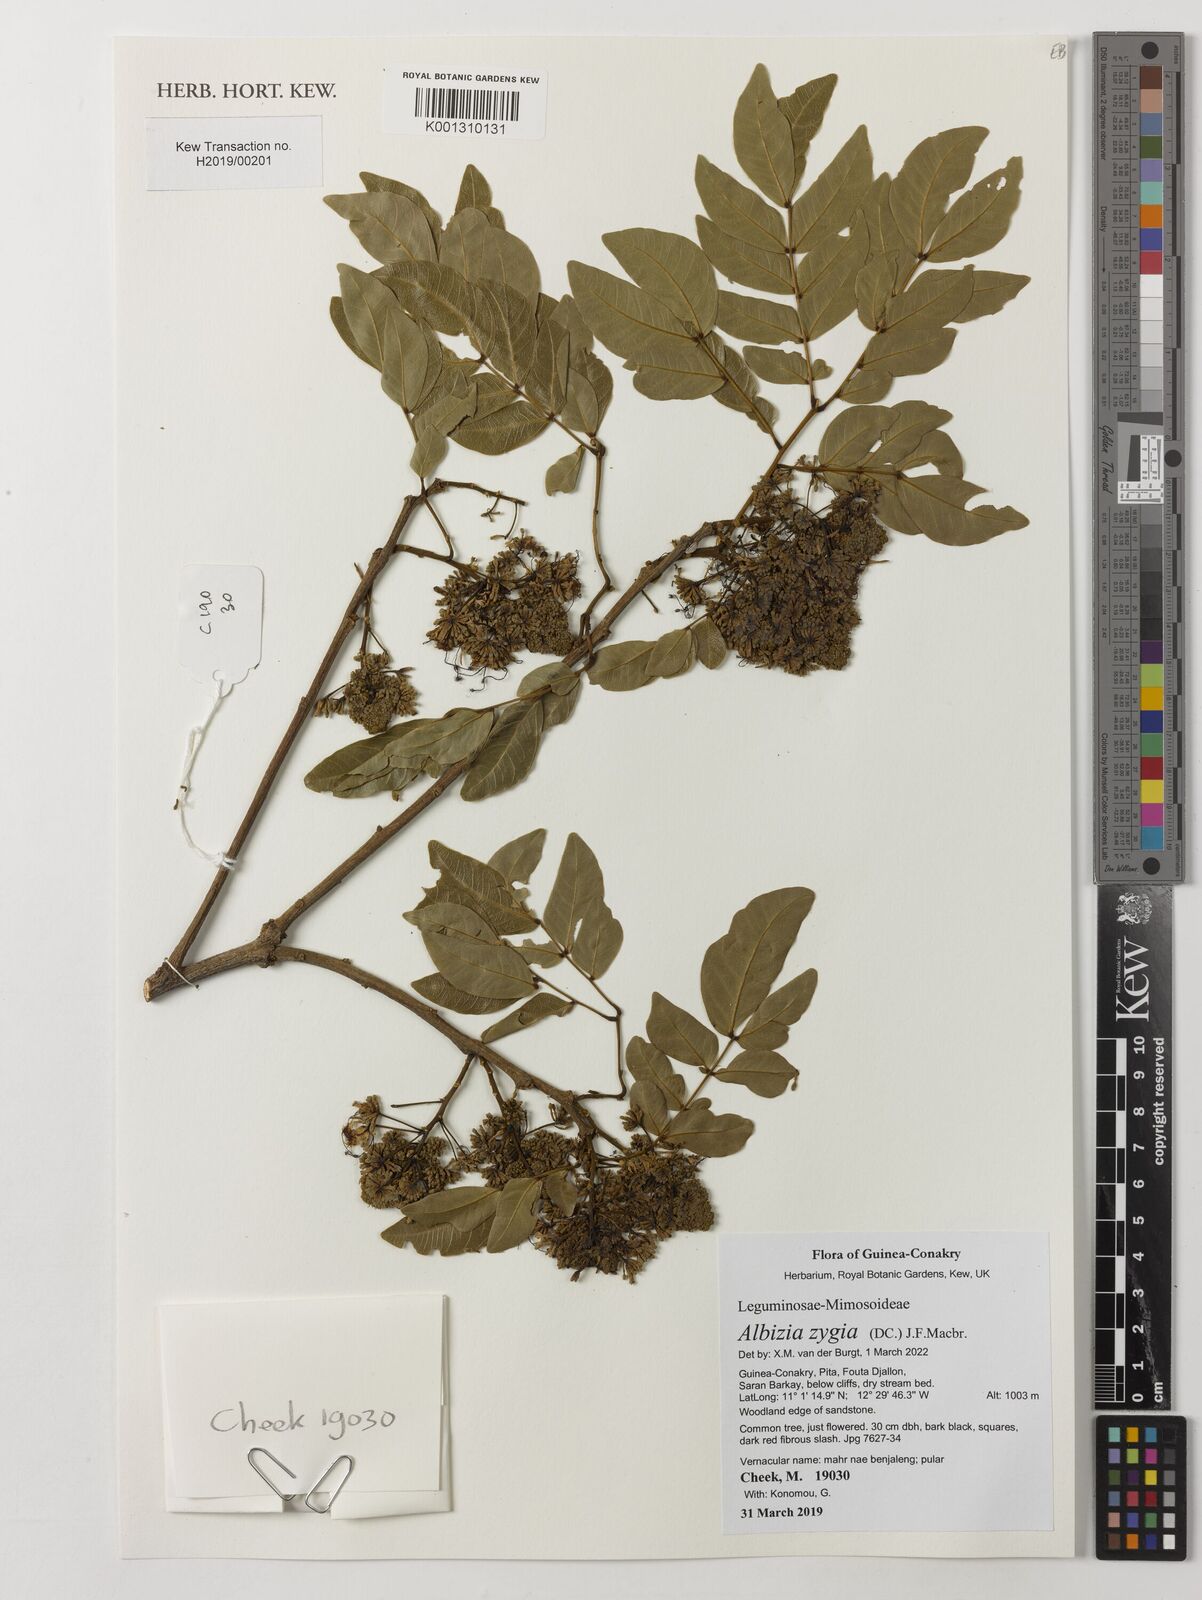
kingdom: Plantae
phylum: Tracheophyta
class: Magnoliopsida
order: Fabales
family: Fabaceae
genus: Albizia
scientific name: Albizia zygia
